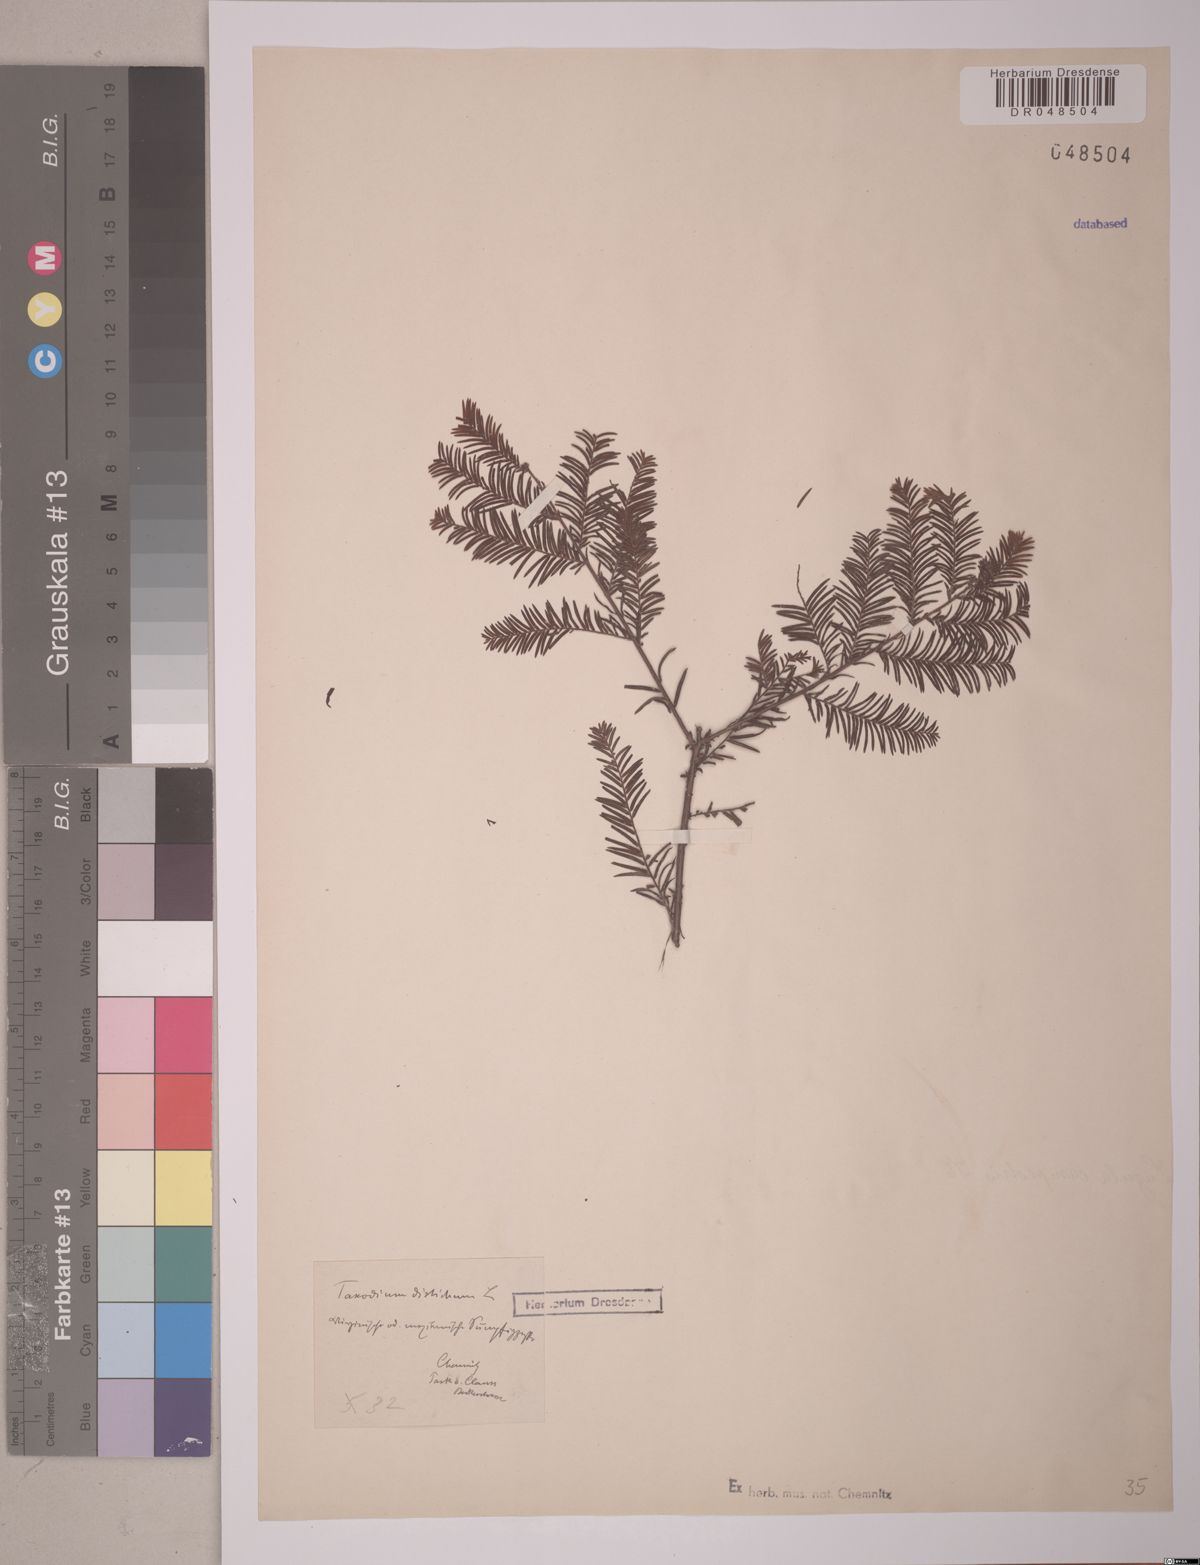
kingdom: Plantae
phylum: Tracheophyta
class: Pinopsida
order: Pinales
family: Cupressaceae
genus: Taxodium
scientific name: Taxodium distichum
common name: Bald cypress
